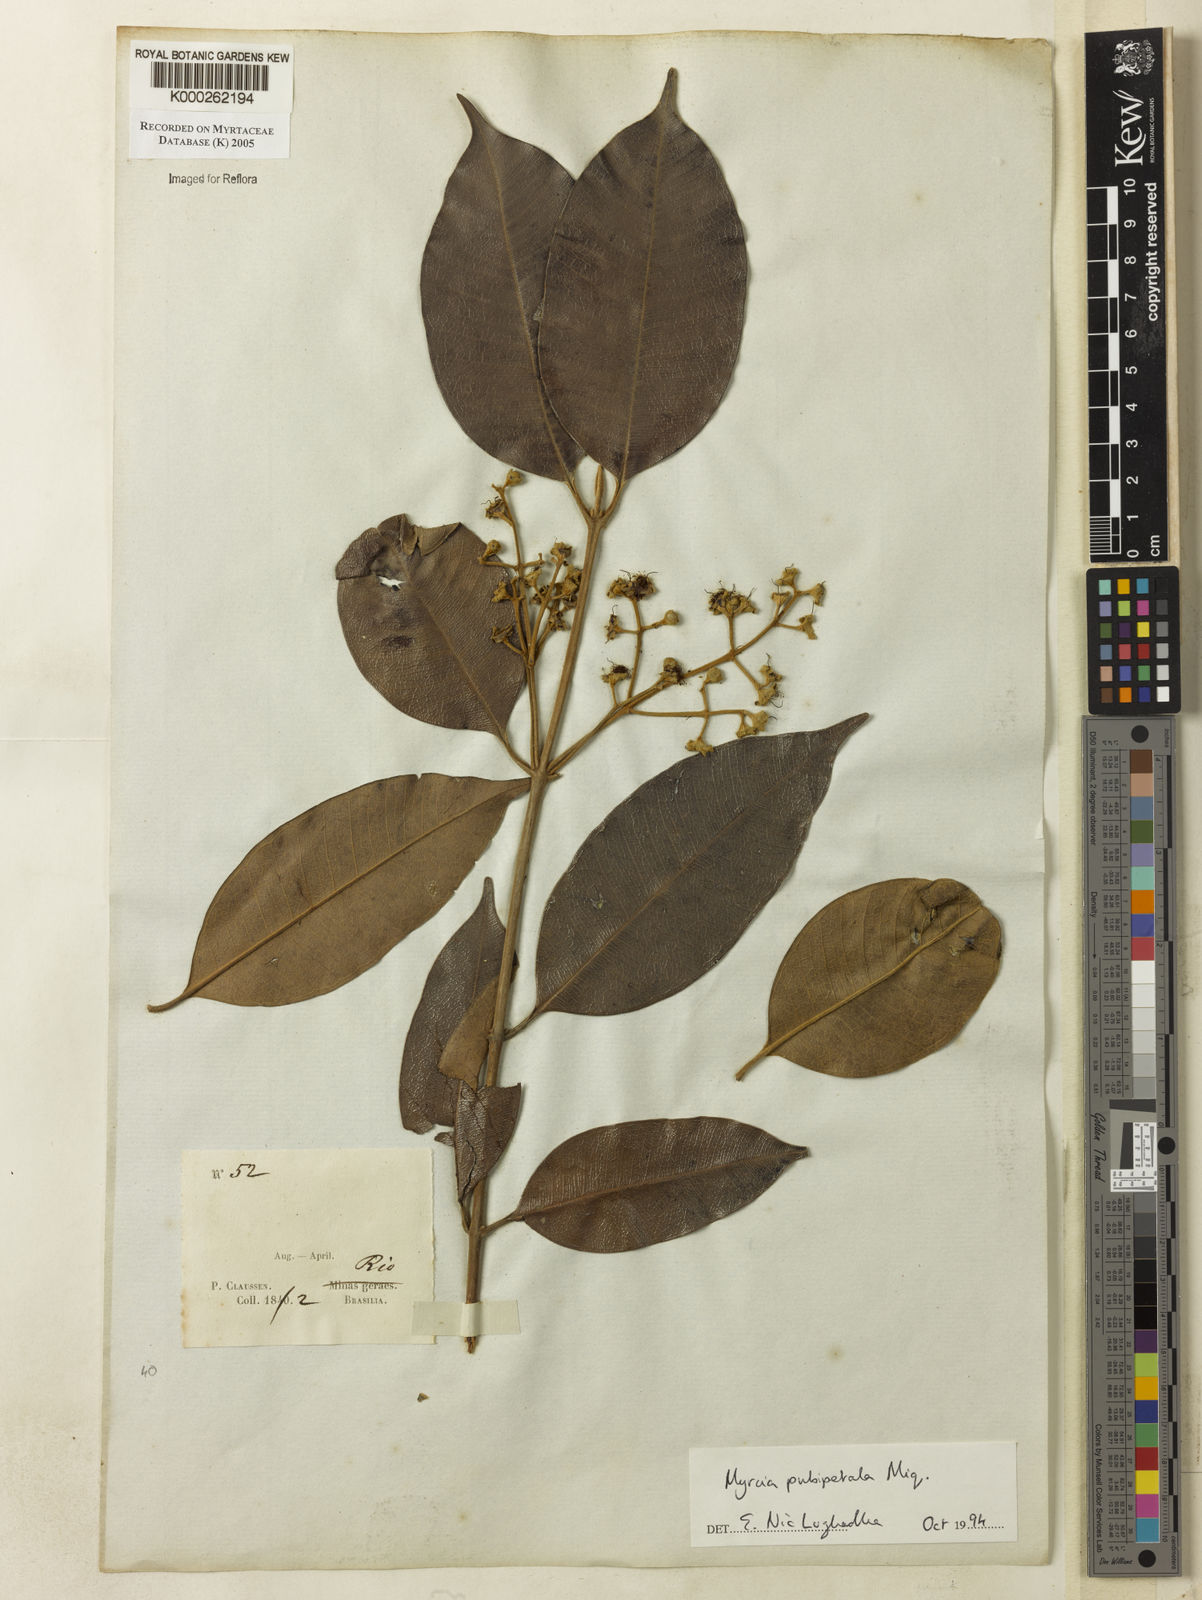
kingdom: Plantae
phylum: Tracheophyta
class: Magnoliopsida
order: Myrtales
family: Myrtaceae
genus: Myrcia
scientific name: Myrcia pubipetala
